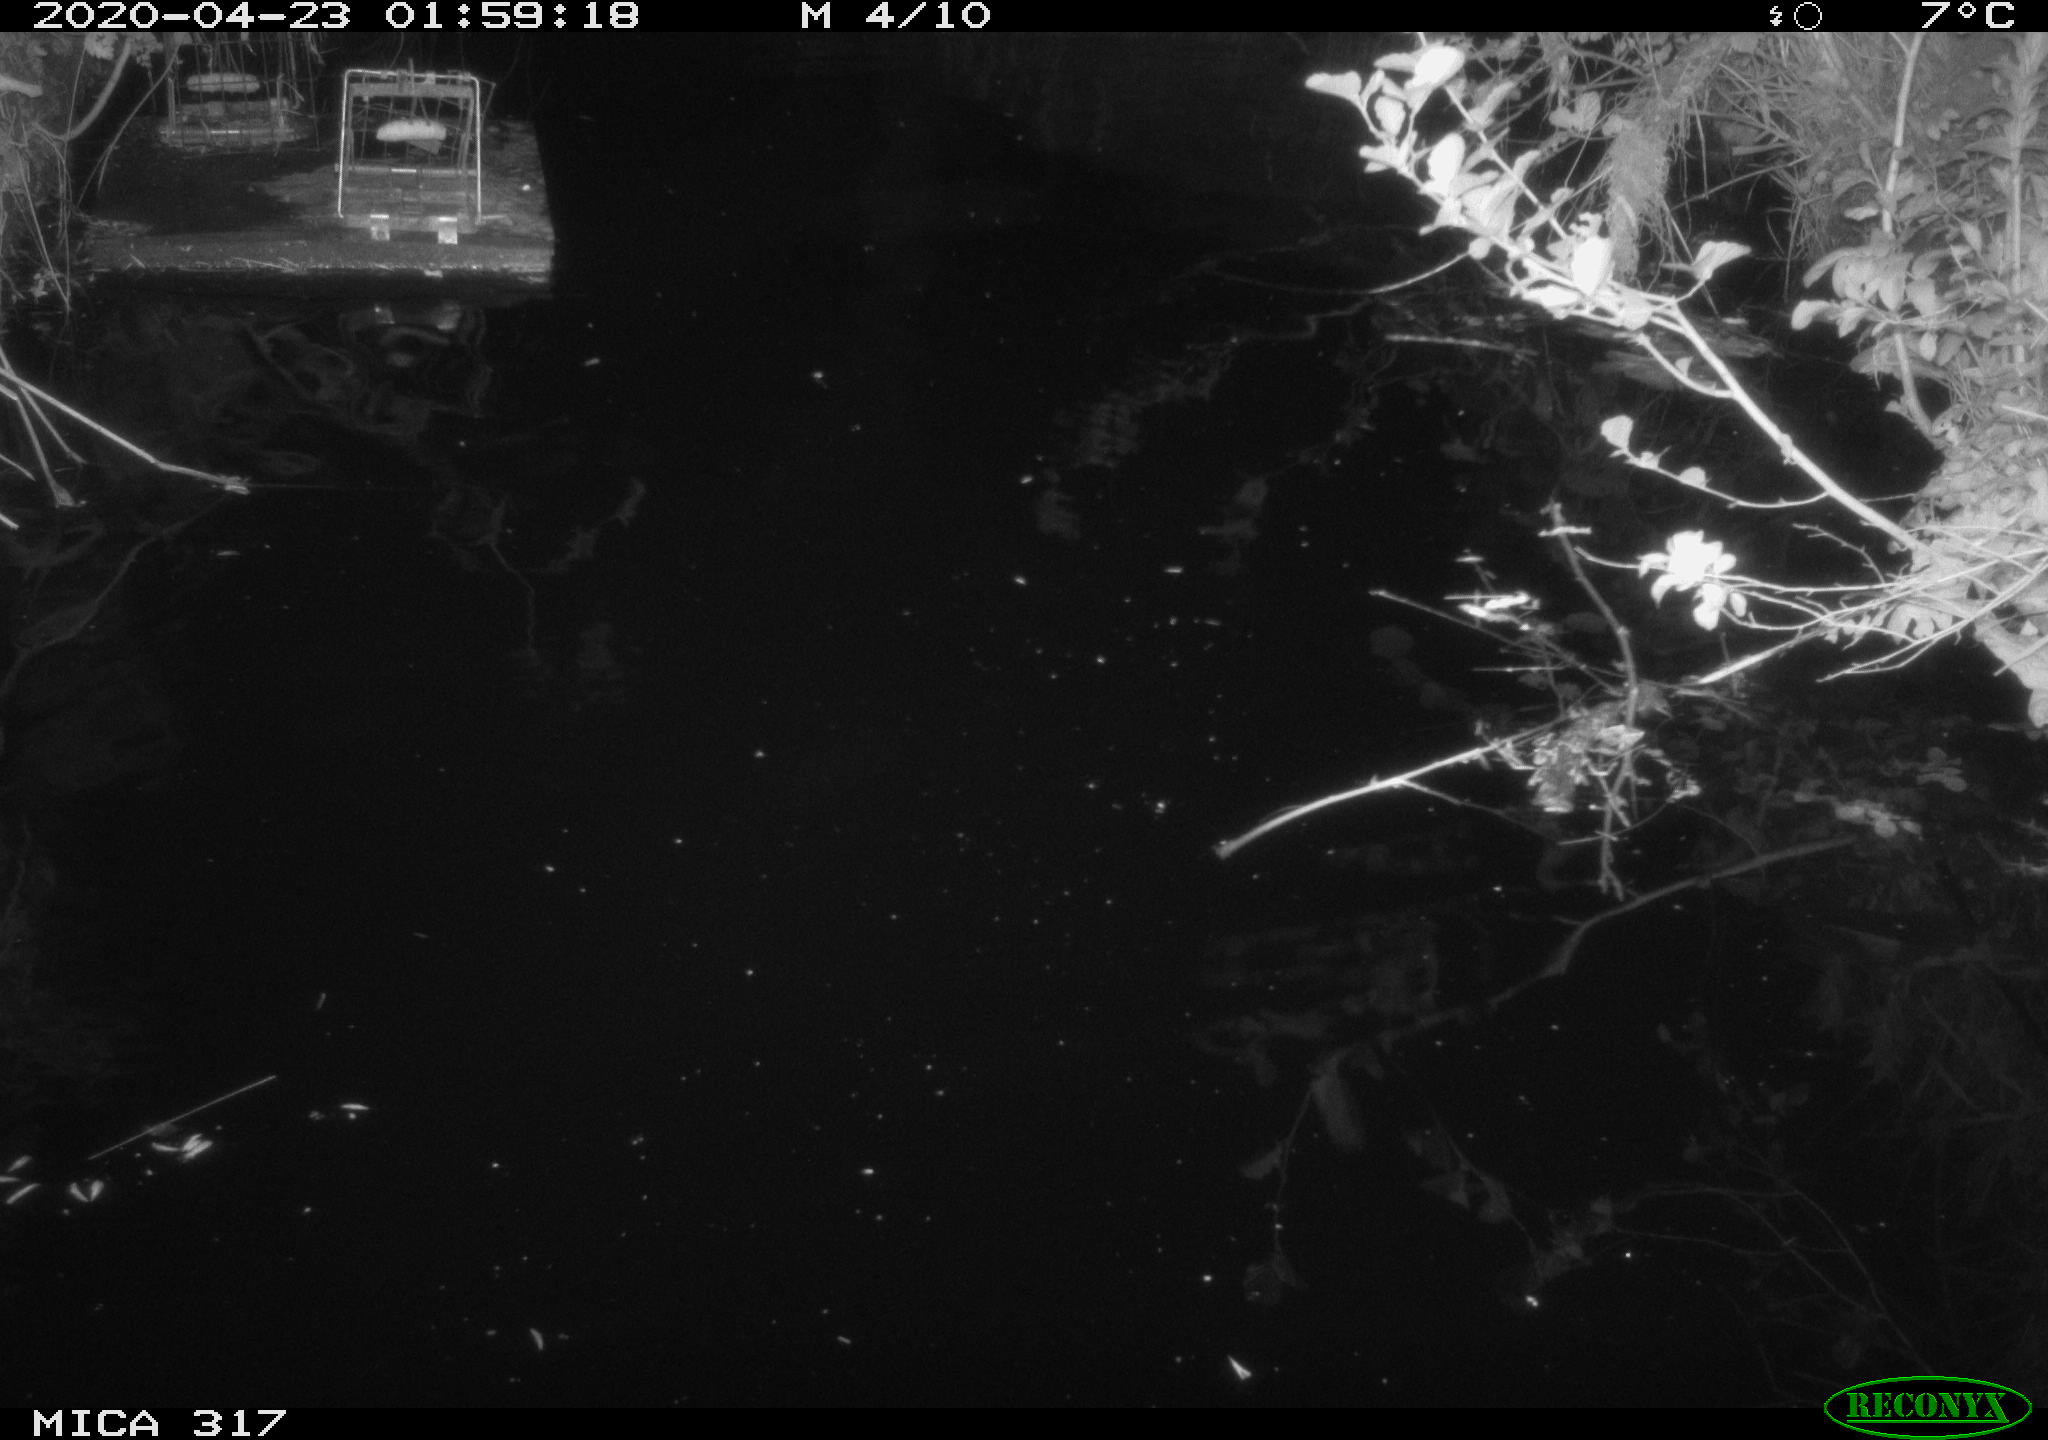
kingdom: Animalia
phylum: Chordata
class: Aves
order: Anseriformes
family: Anatidae
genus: Anas
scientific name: Anas platyrhynchos
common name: Mallard
